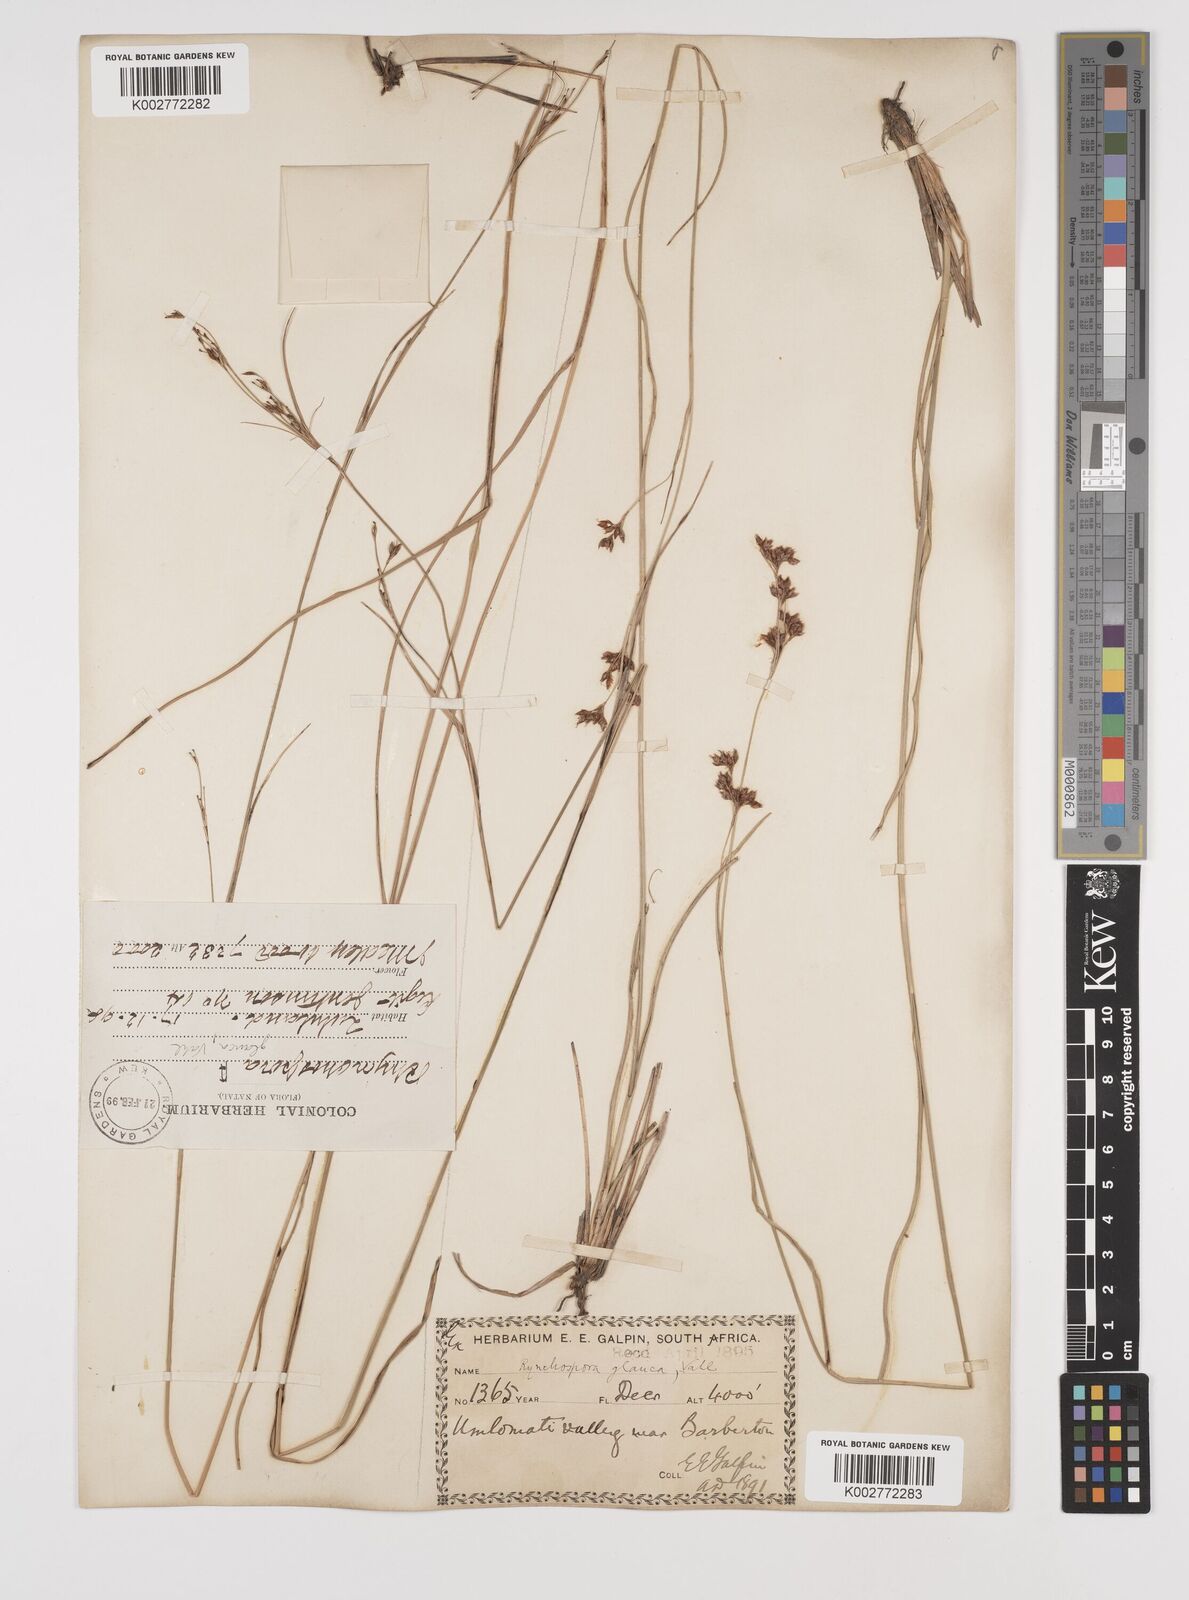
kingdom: Plantae
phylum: Tracheophyta
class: Liliopsida
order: Poales
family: Cyperaceae
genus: Rhynchospora
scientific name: Rhynchospora rugosa
